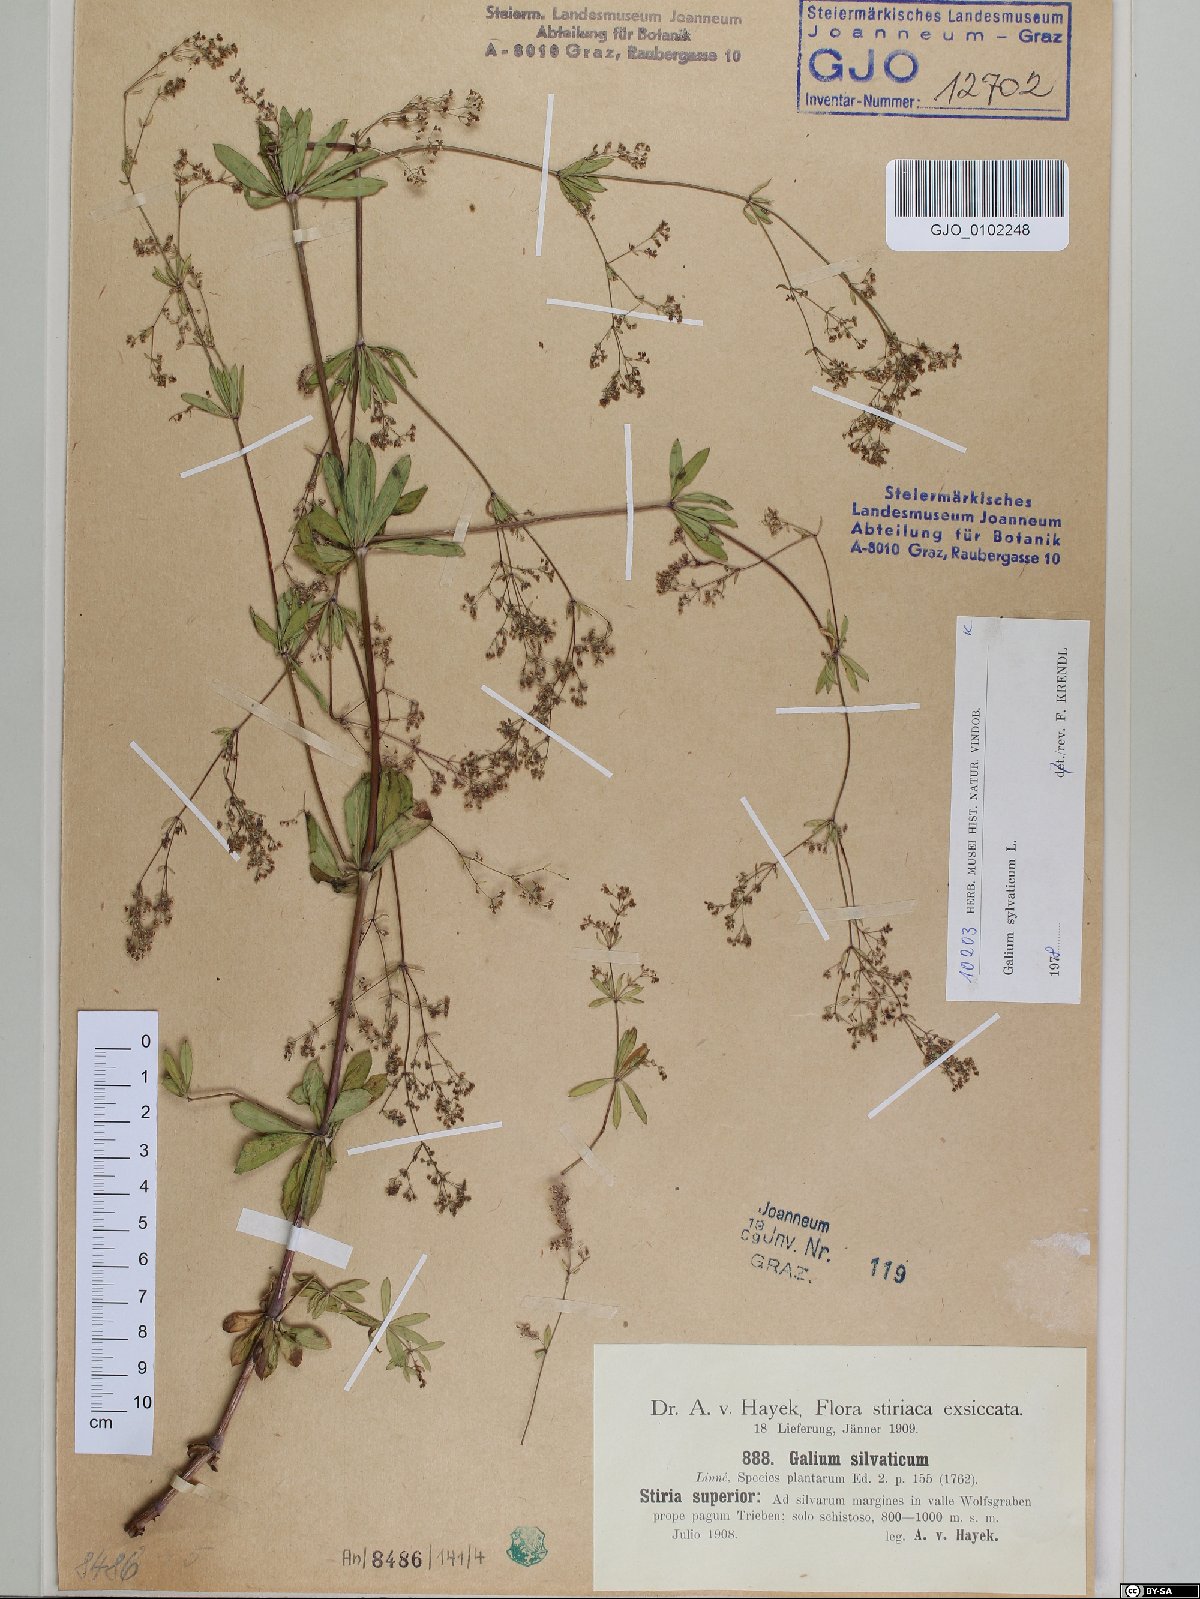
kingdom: Plantae
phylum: Tracheophyta
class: Magnoliopsida
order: Gentianales
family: Rubiaceae
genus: Galium
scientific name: Galium sylvaticum
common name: Wood bedstraw
